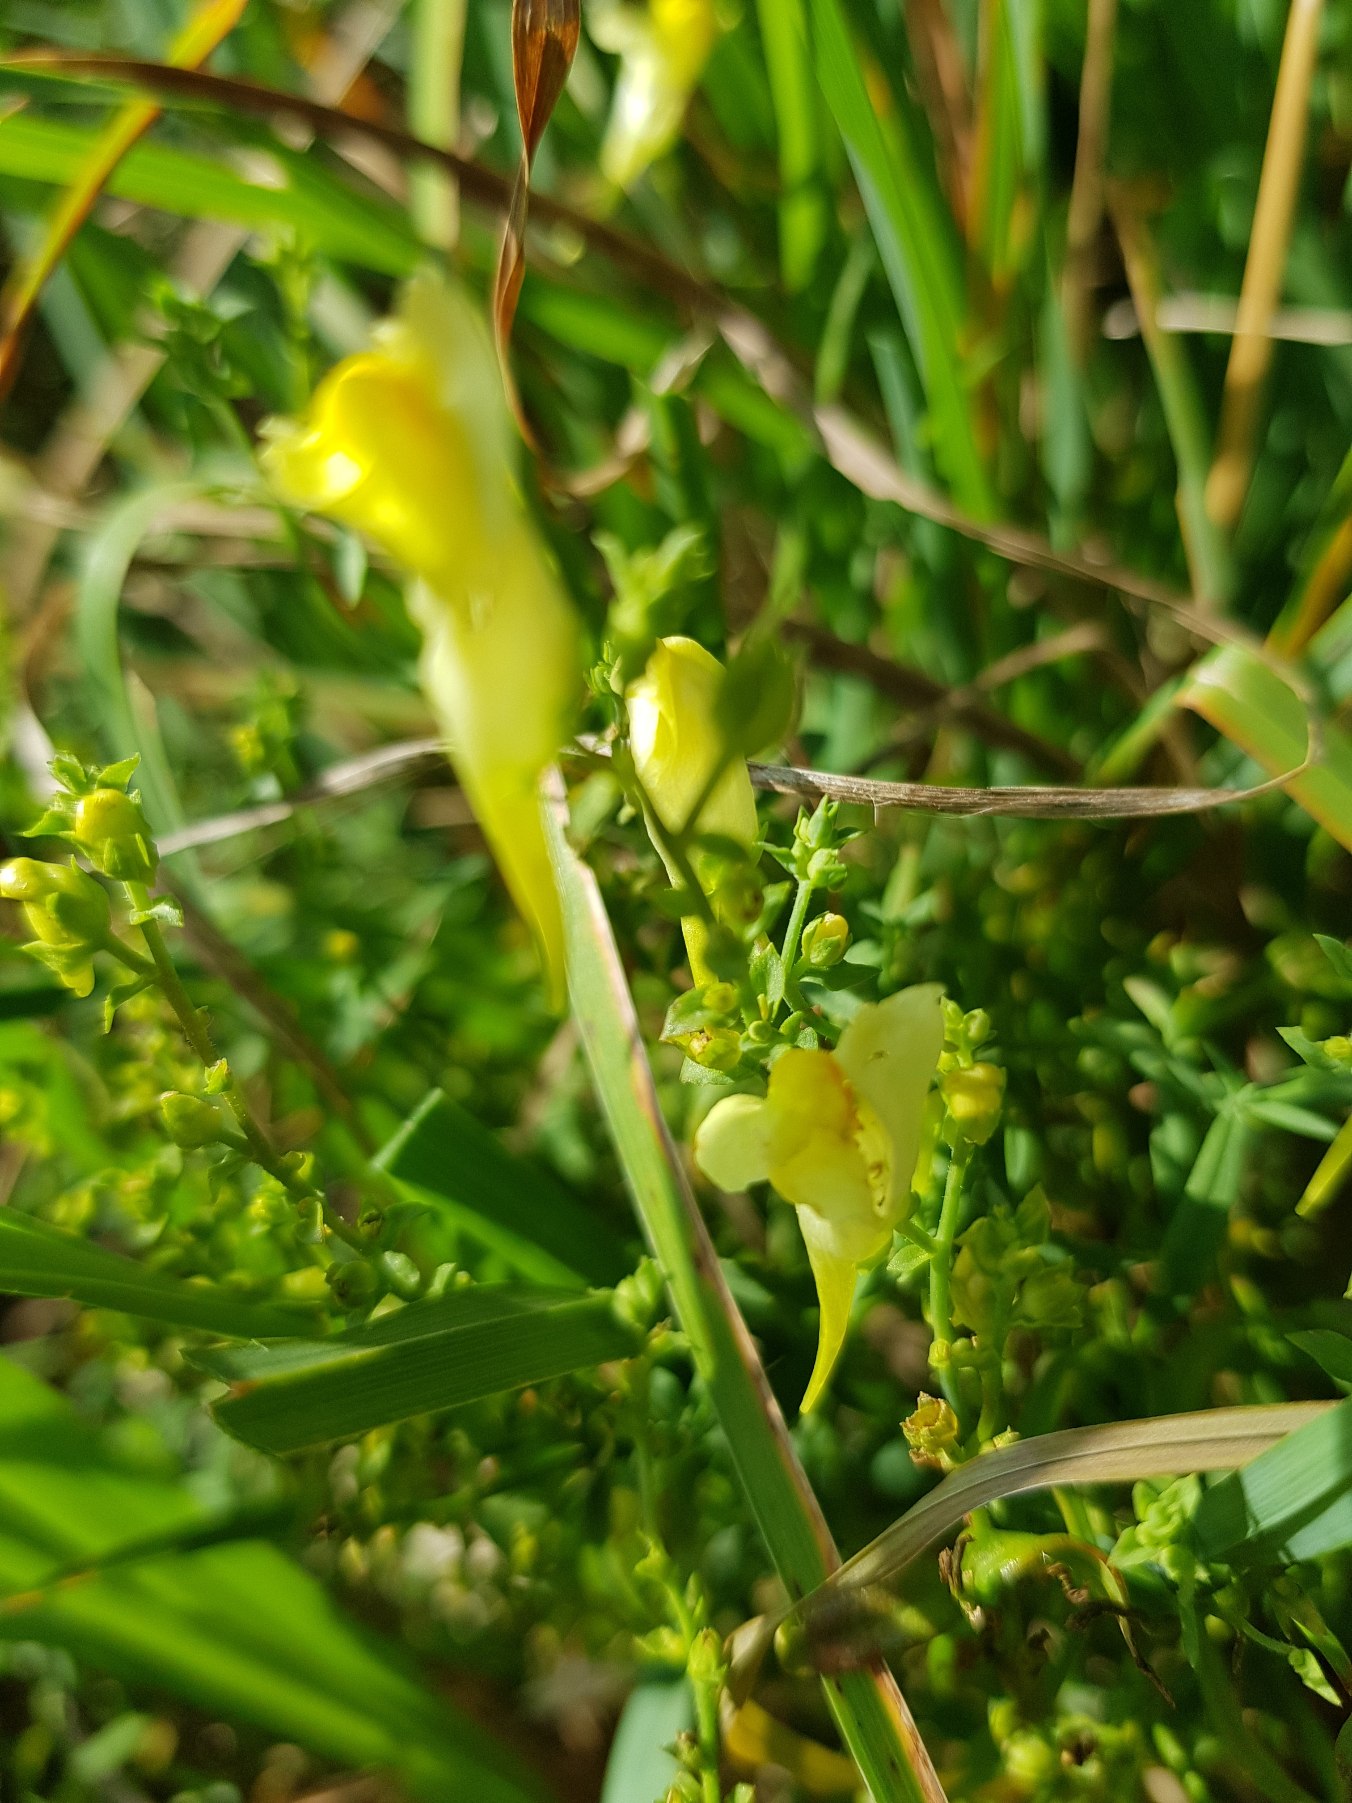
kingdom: Plantae
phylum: Tracheophyta
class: Magnoliopsida
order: Lamiales
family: Plantaginaceae
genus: Linaria
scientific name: Linaria vulgaris
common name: Almindelig torskemund
